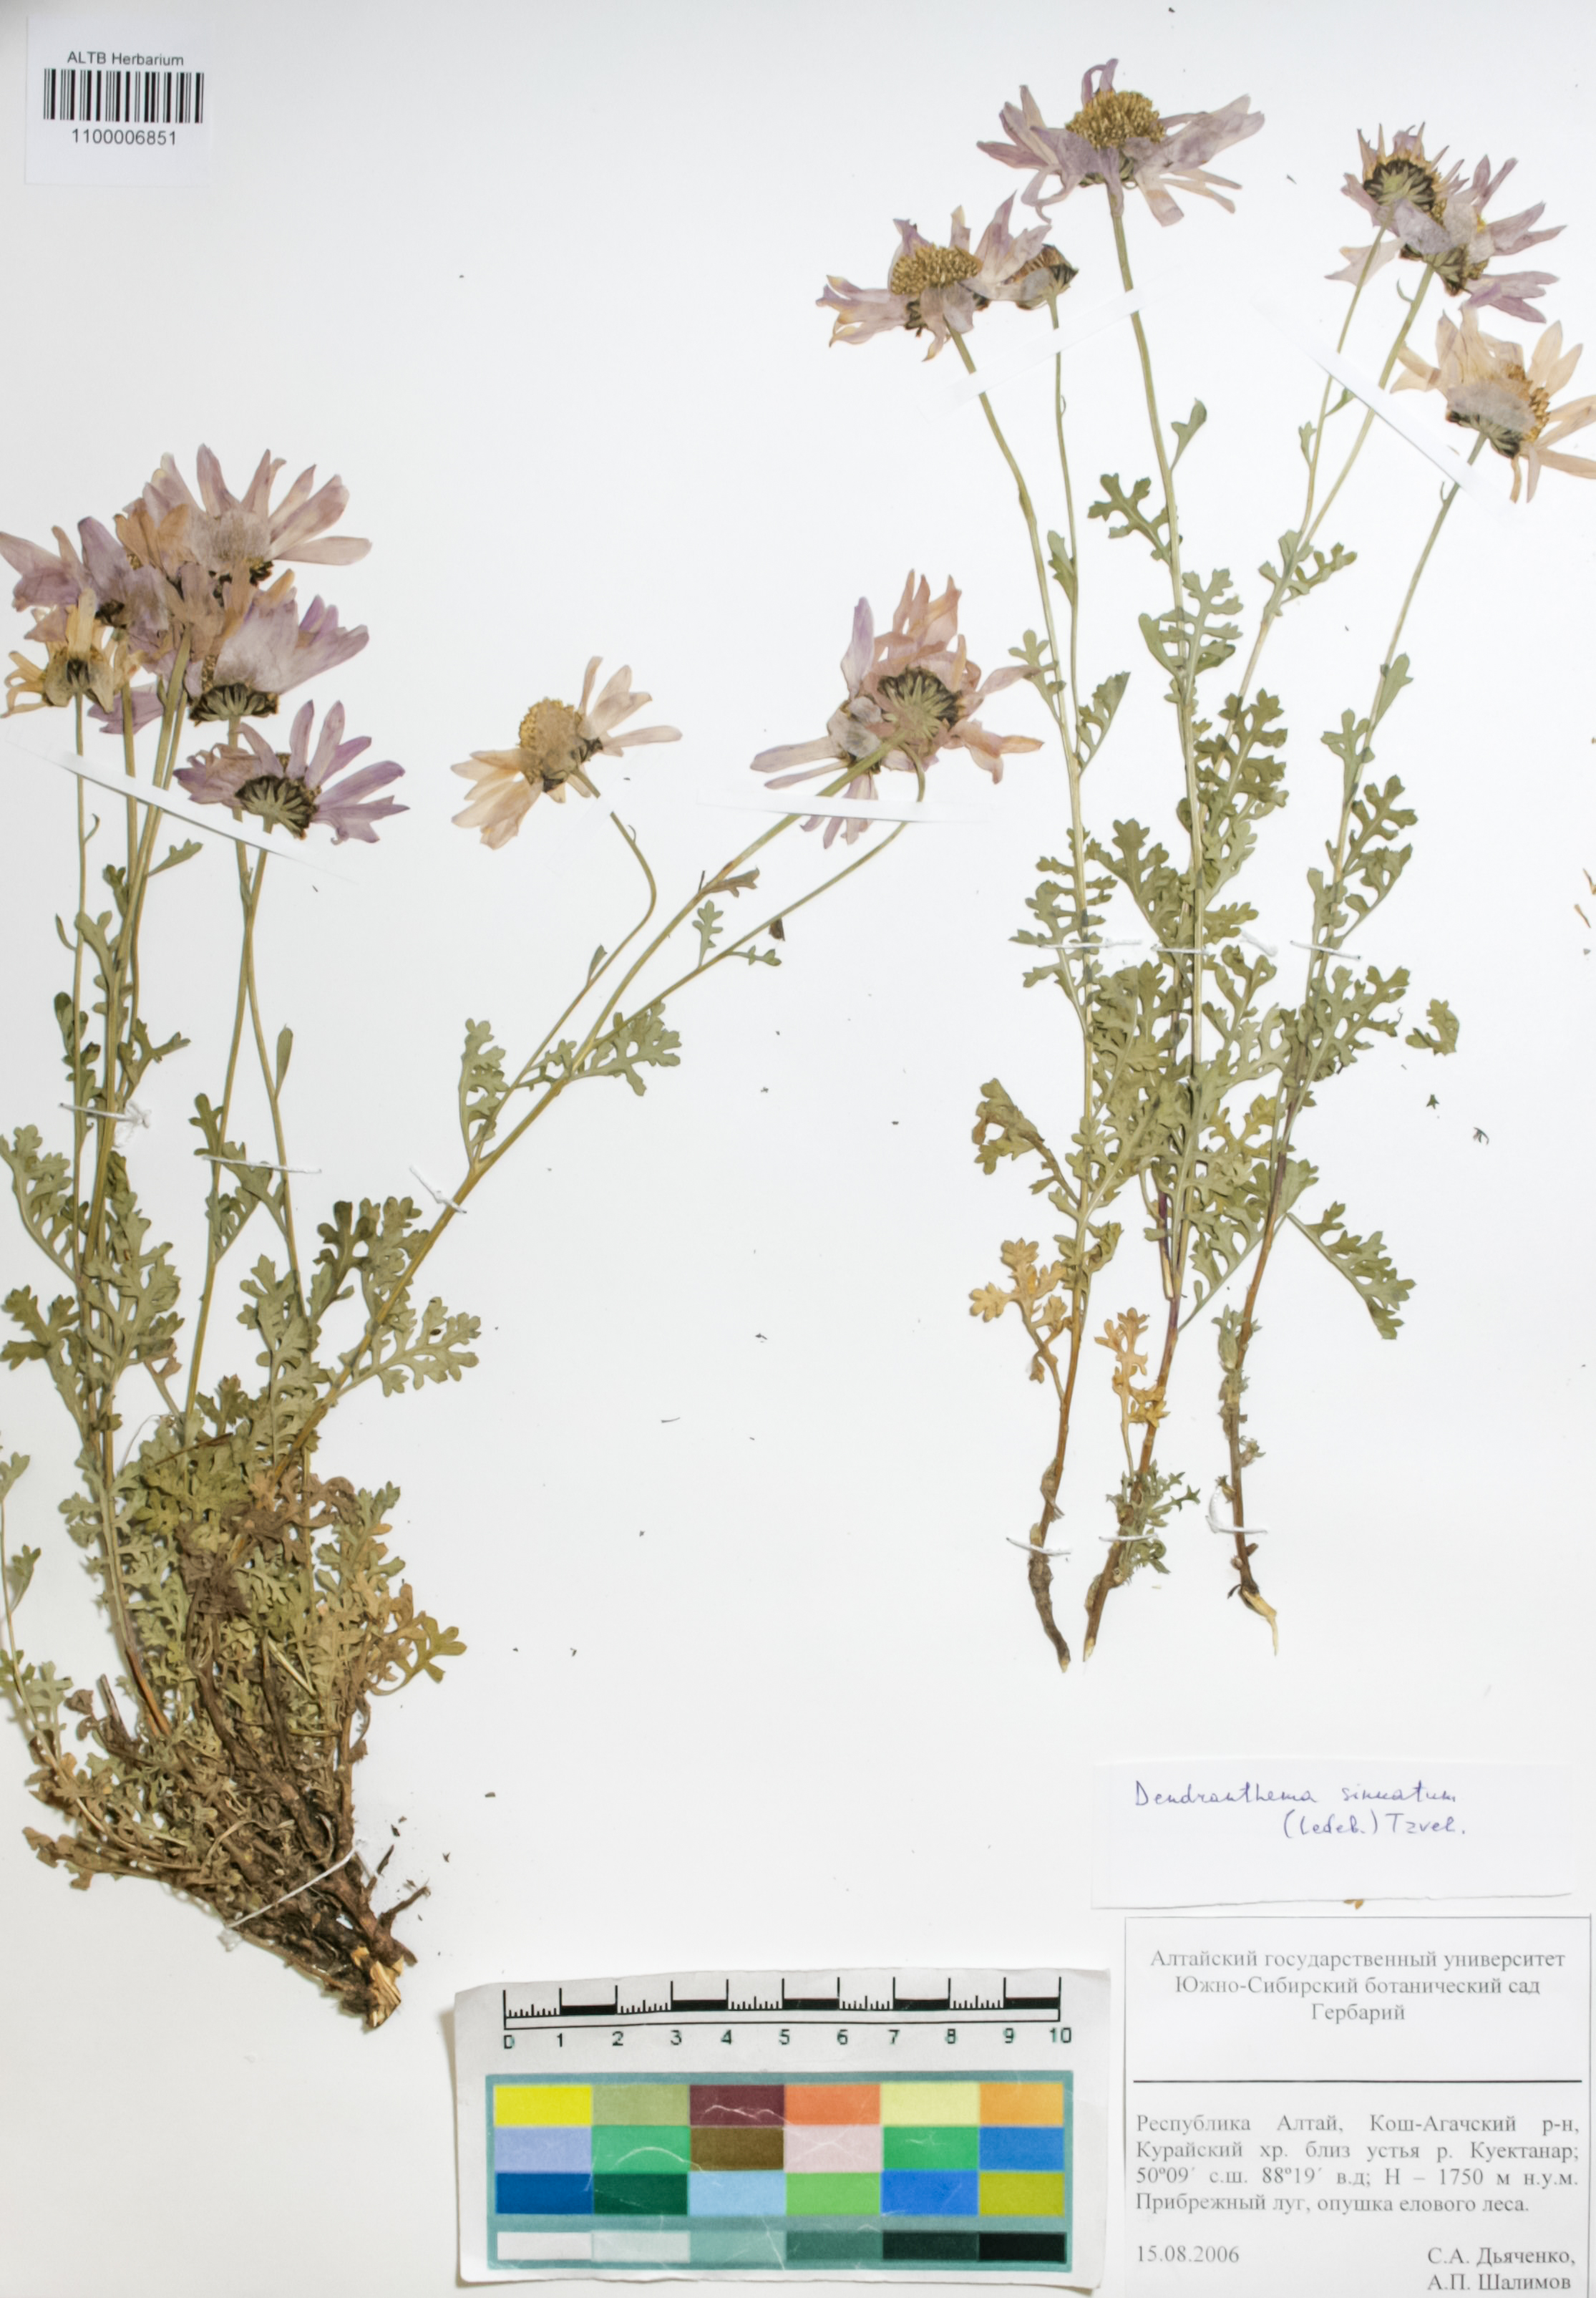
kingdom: Plantae
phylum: Tracheophyta
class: Magnoliopsida
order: Asterales
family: Asteraceae
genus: Chrysanthemum
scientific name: Chrysanthemum sinuatum
